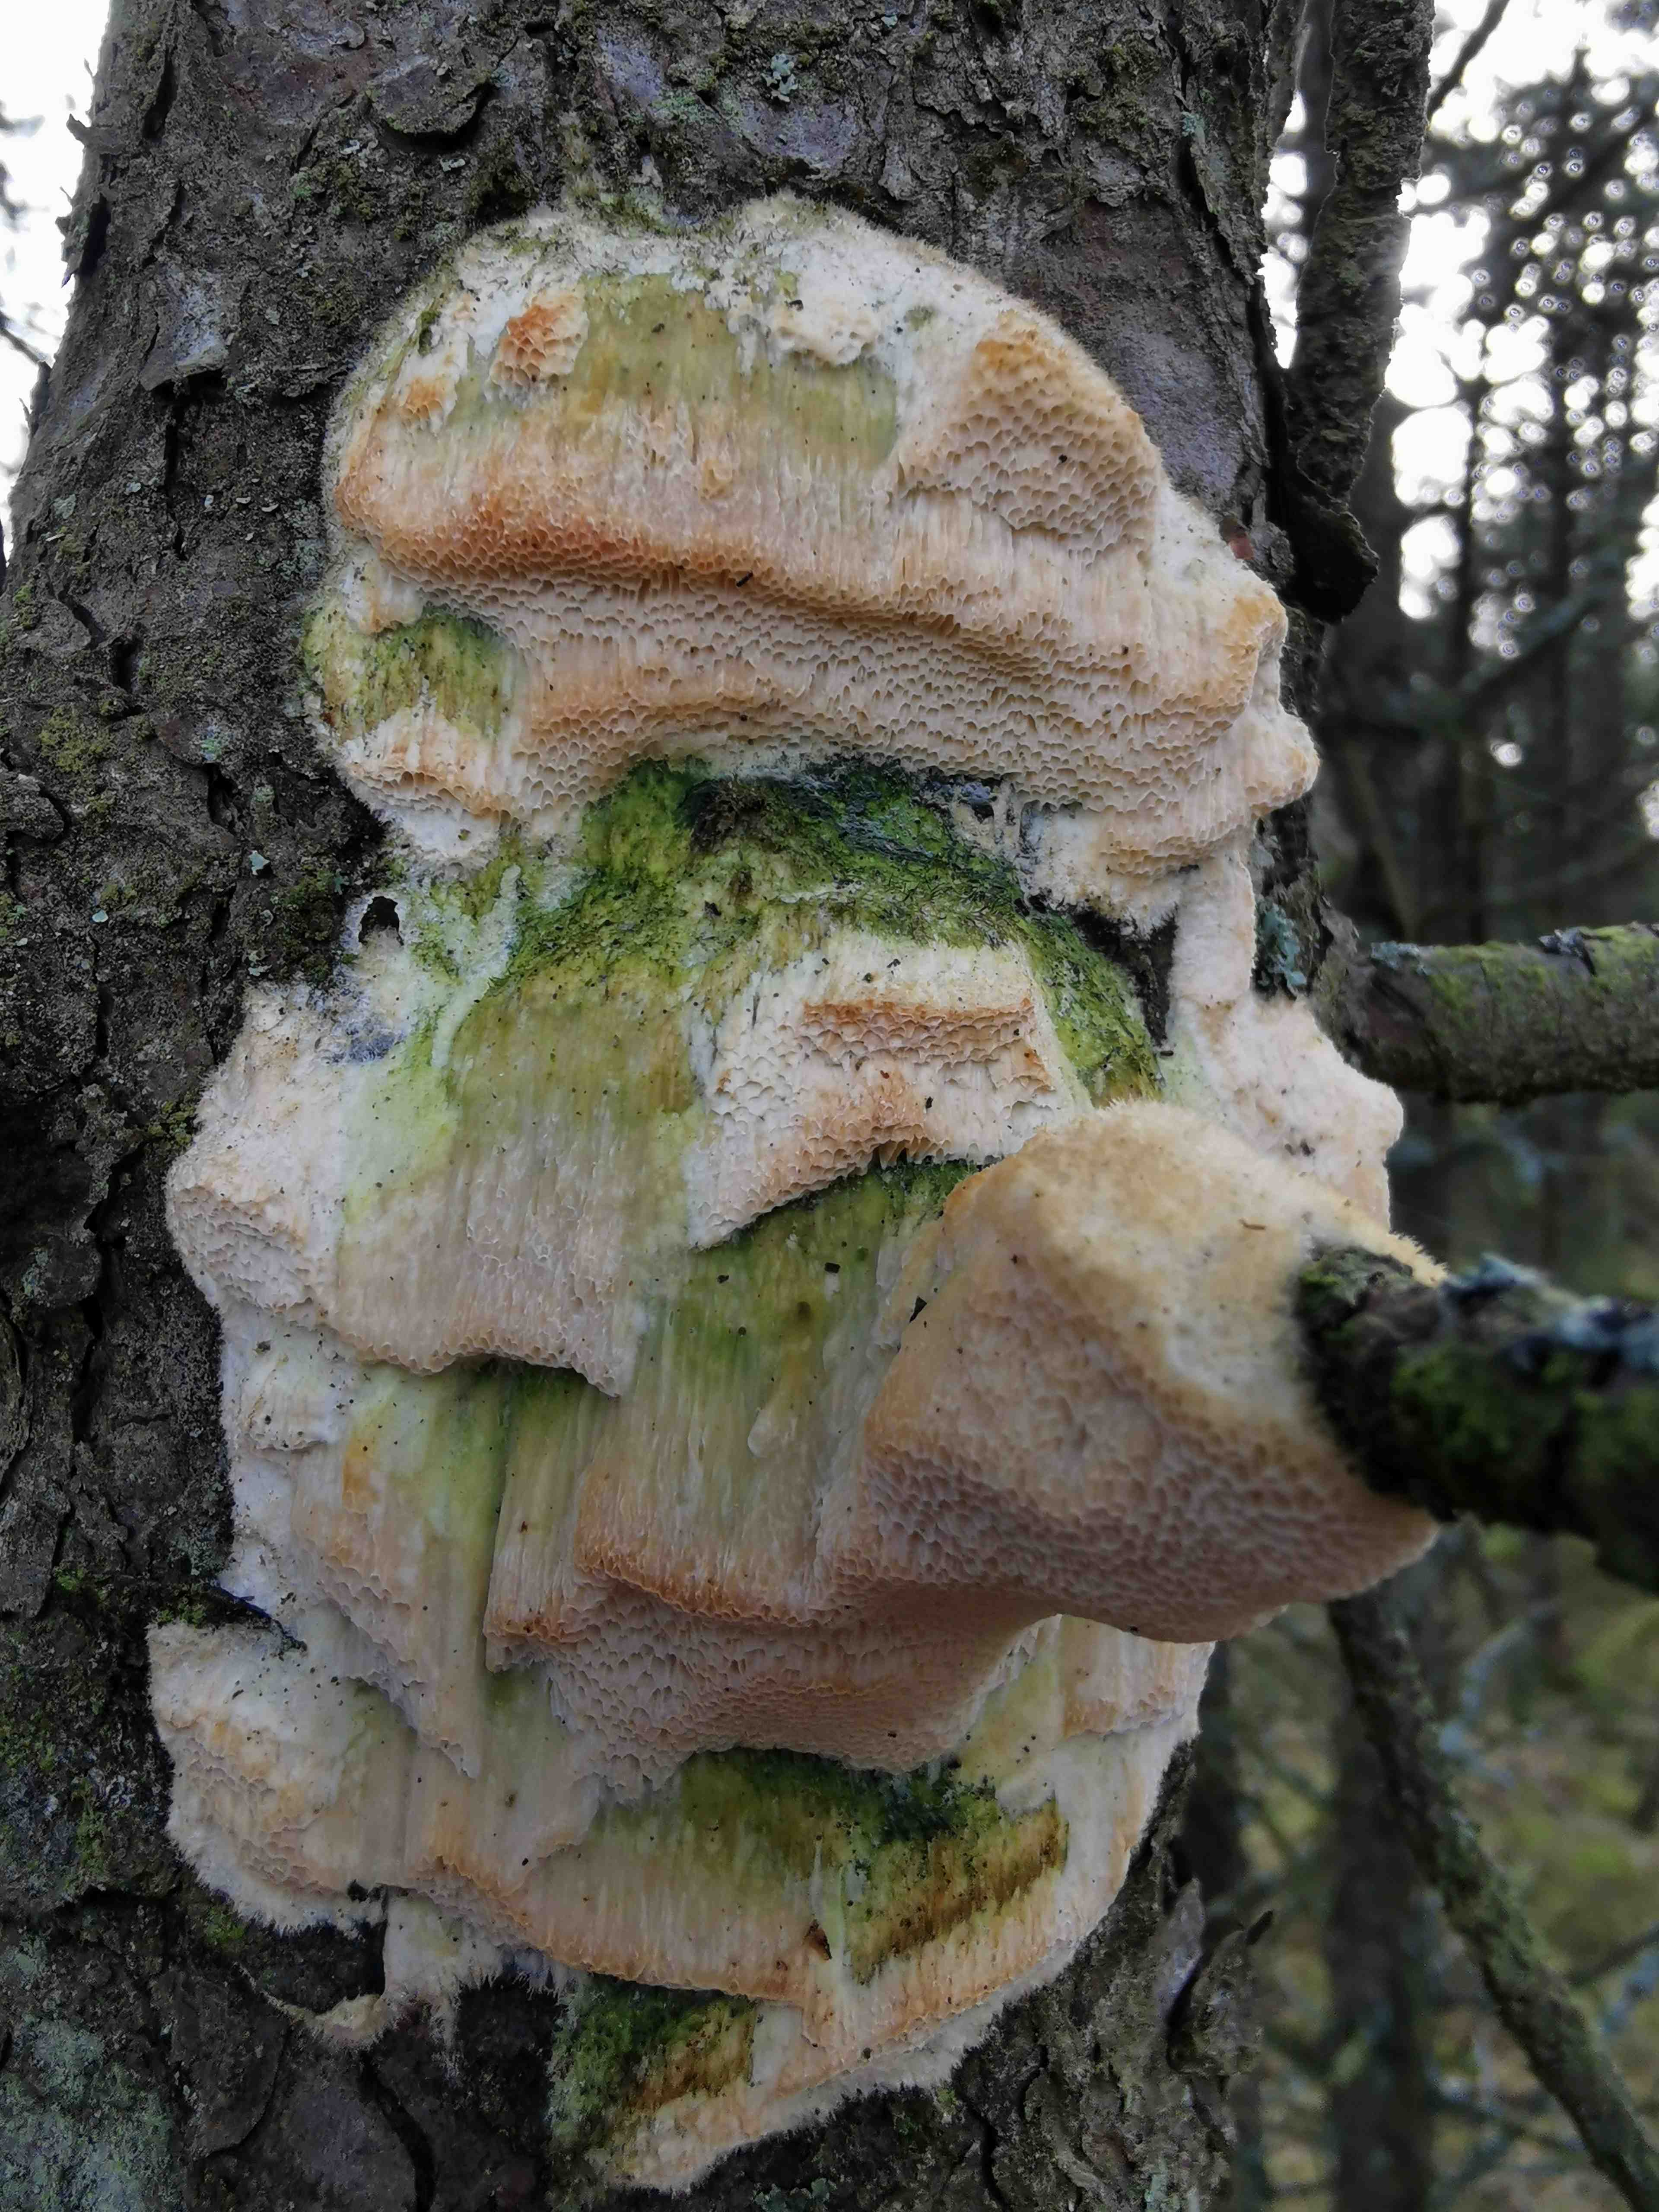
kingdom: Fungi
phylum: Basidiomycota
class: Agaricomycetes
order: Polyporales
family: Polyporaceae
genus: Diplomitoporus
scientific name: Diplomitoporus flavescens
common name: fyrre-elastikporesvamp
